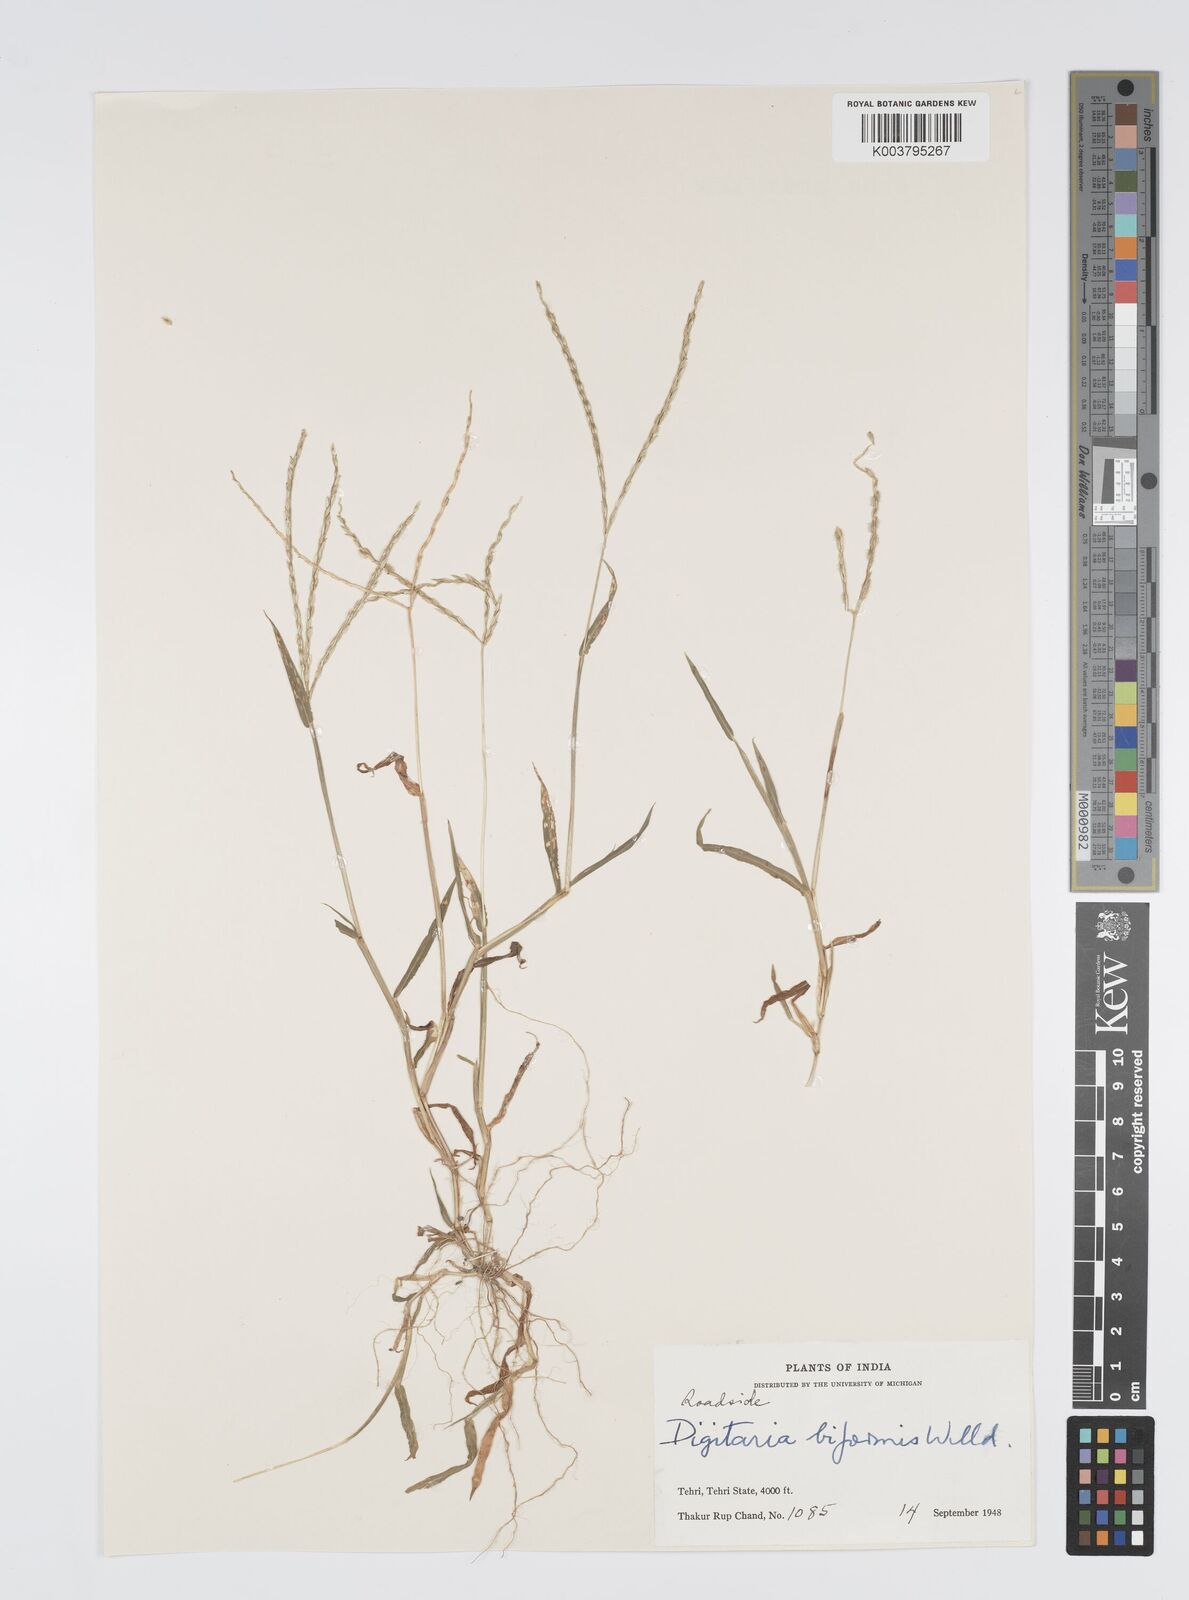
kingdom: Plantae
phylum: Tracheophyta
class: Liliopsida
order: Poales
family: Poaceae
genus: Digitaria
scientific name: Digitaria ciliaris
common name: Tropical finger-grass
